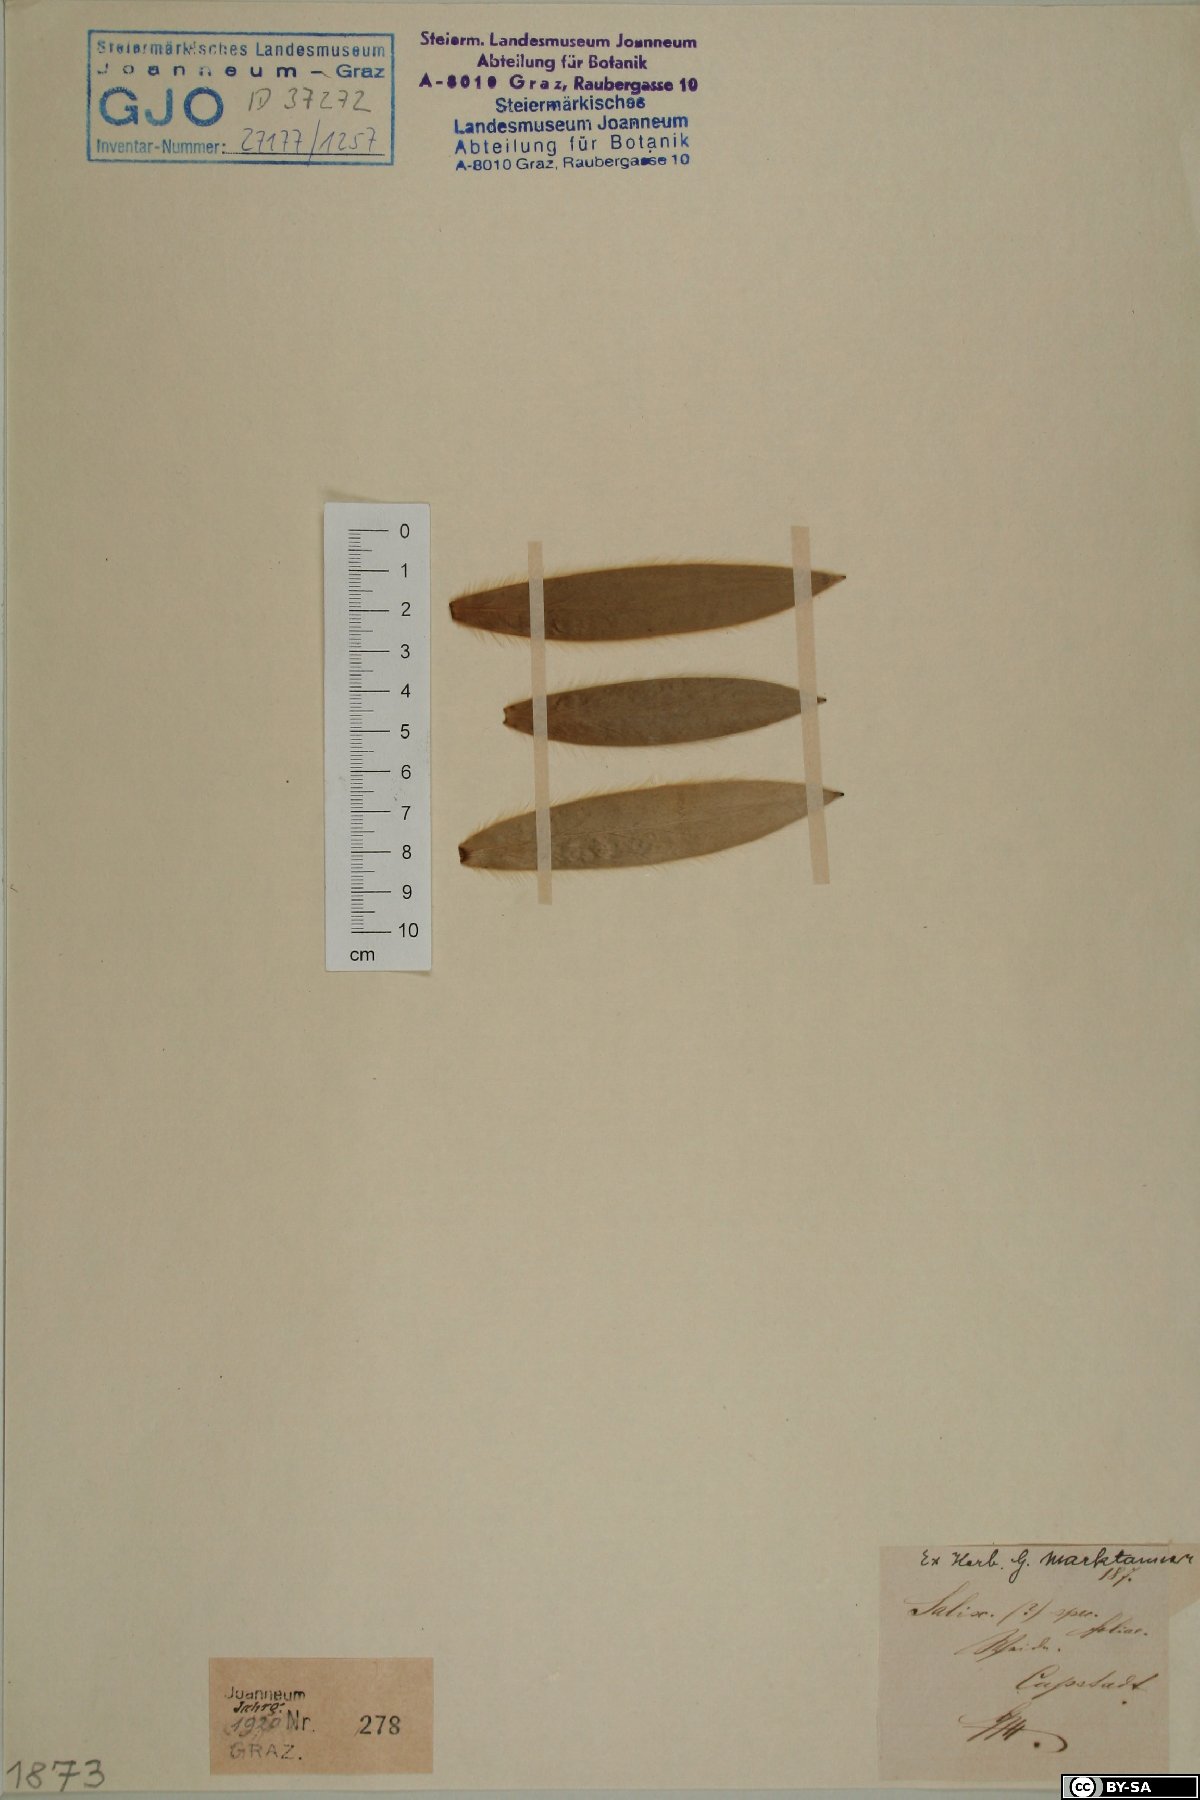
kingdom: Plantae
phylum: Tracheophyta
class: Magnoliopsida
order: Malpighiales
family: Salicaceae
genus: Salix
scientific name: Salix
